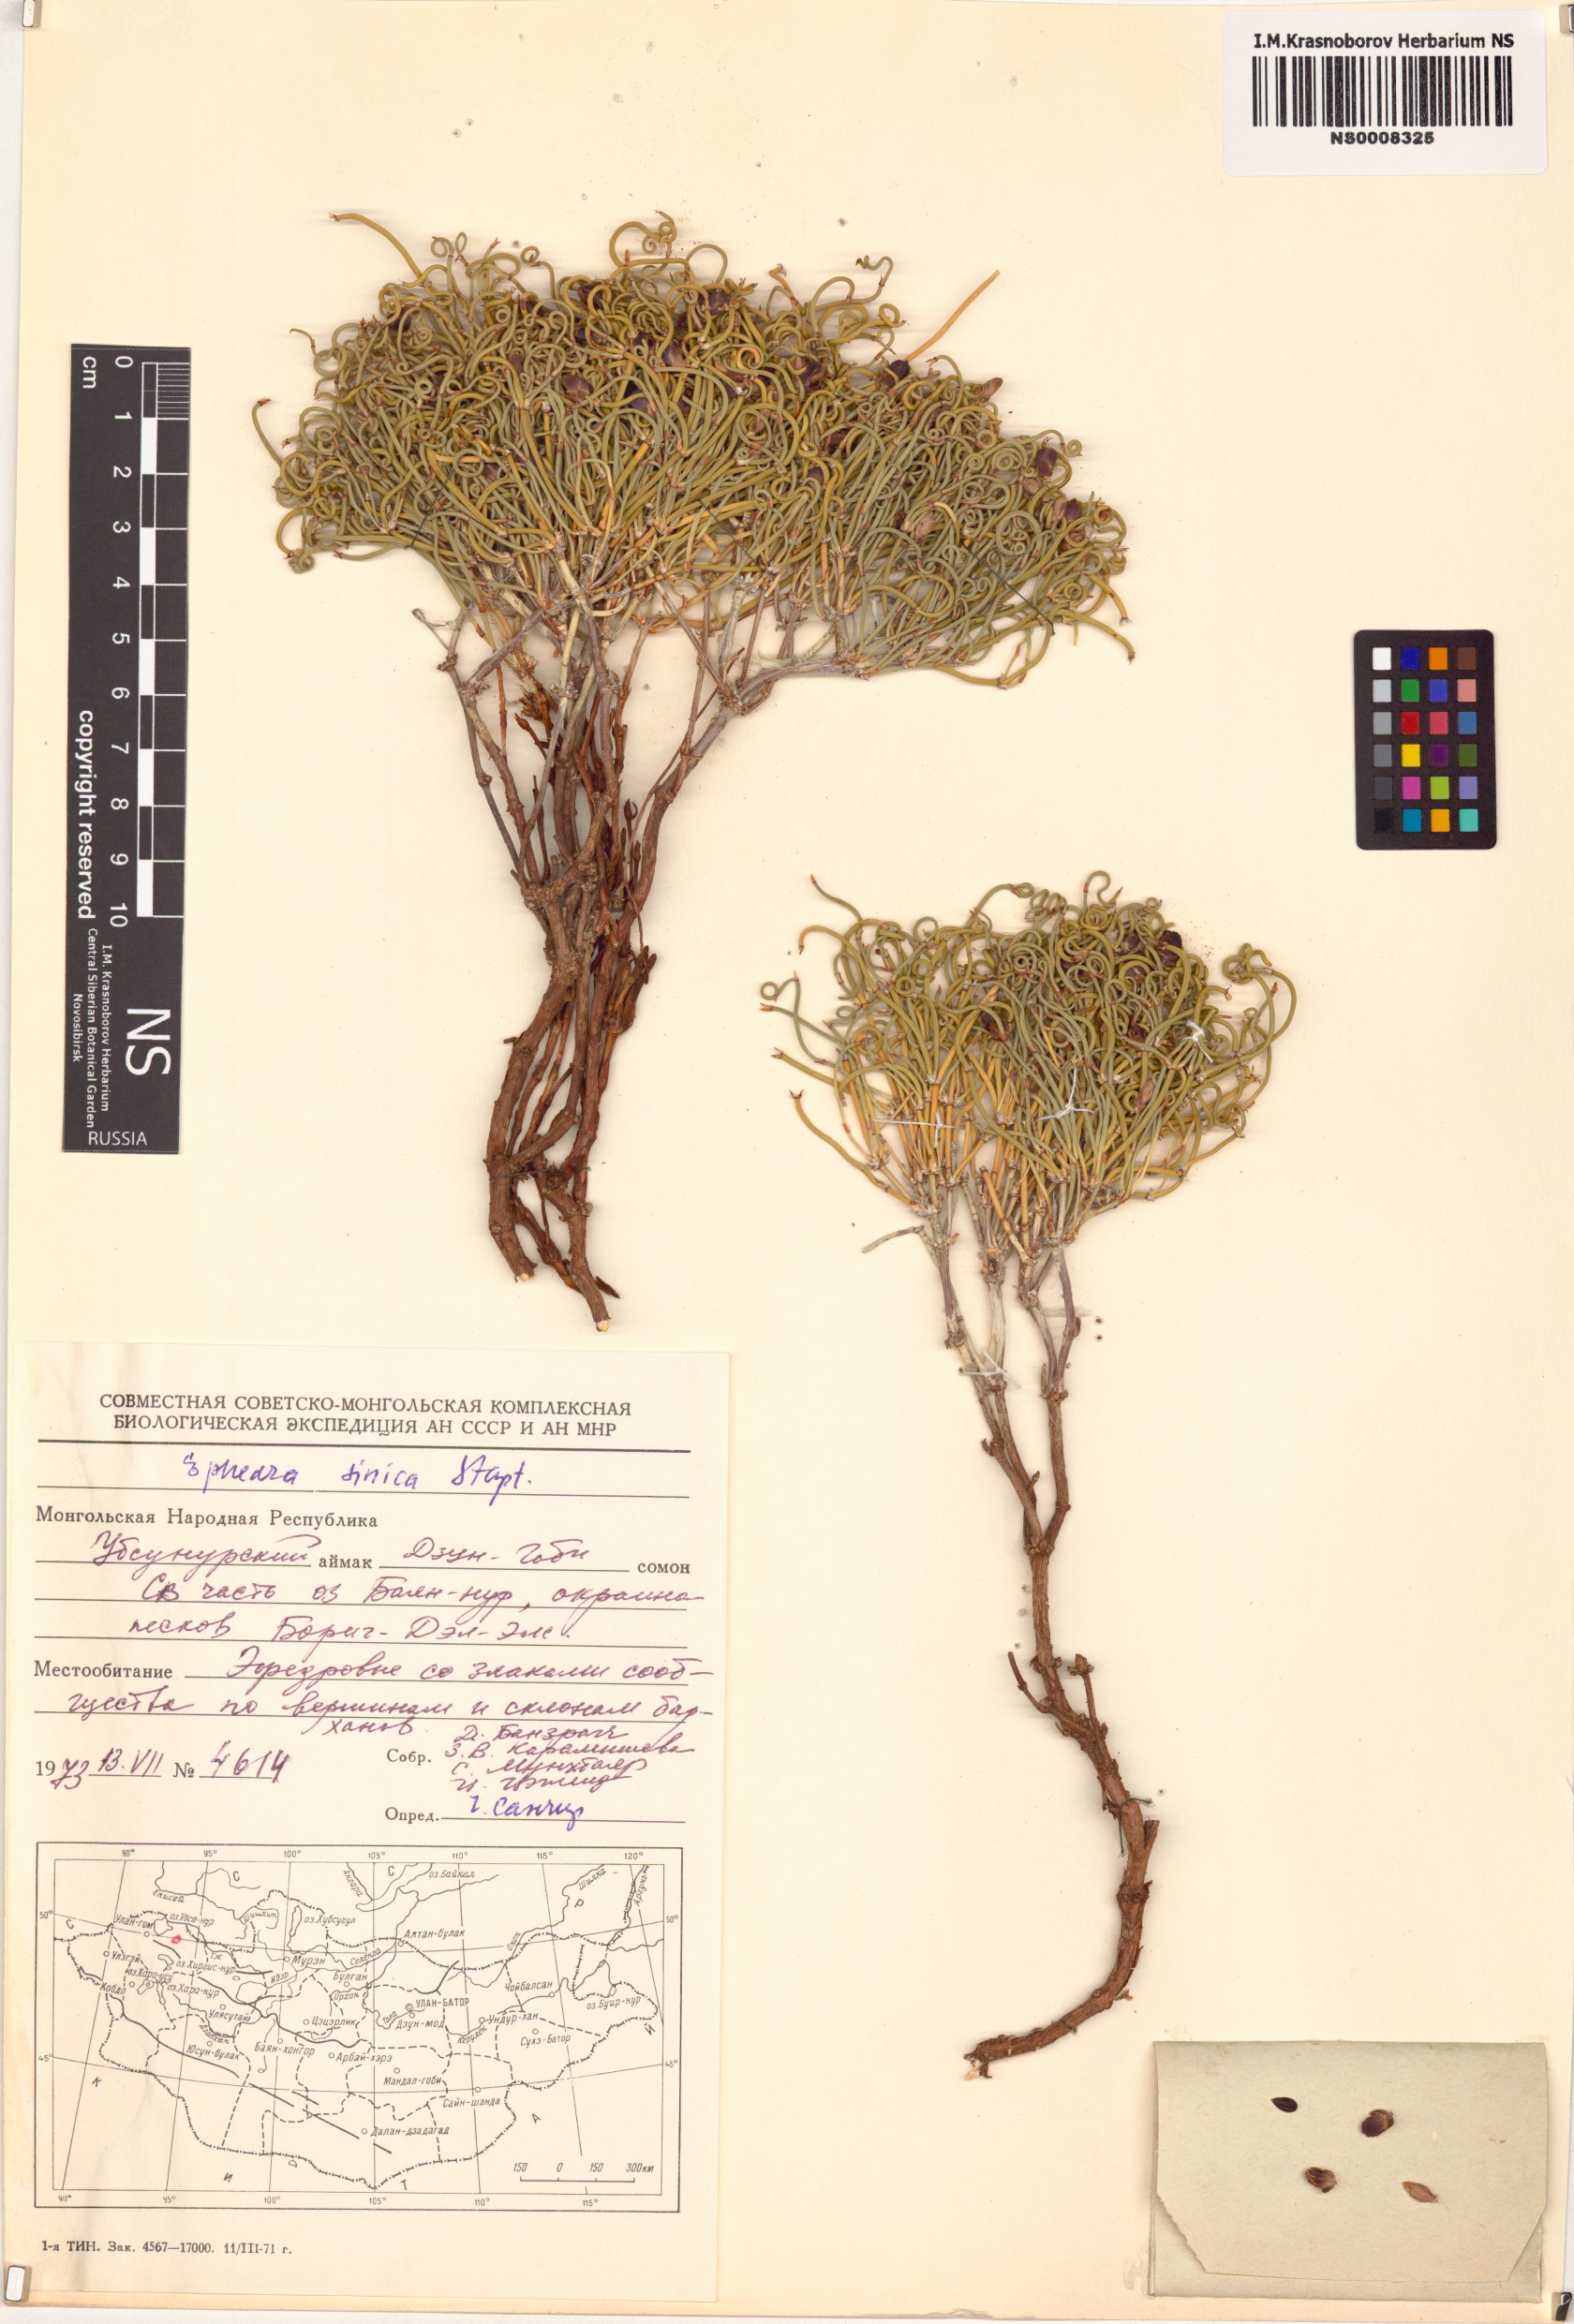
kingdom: Plantae
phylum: Tracheophyta
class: Gnetopsida
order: Ephedrales
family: Ephedraceae
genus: Ephedra
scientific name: Ephedra sinica
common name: Chinese ephedra
